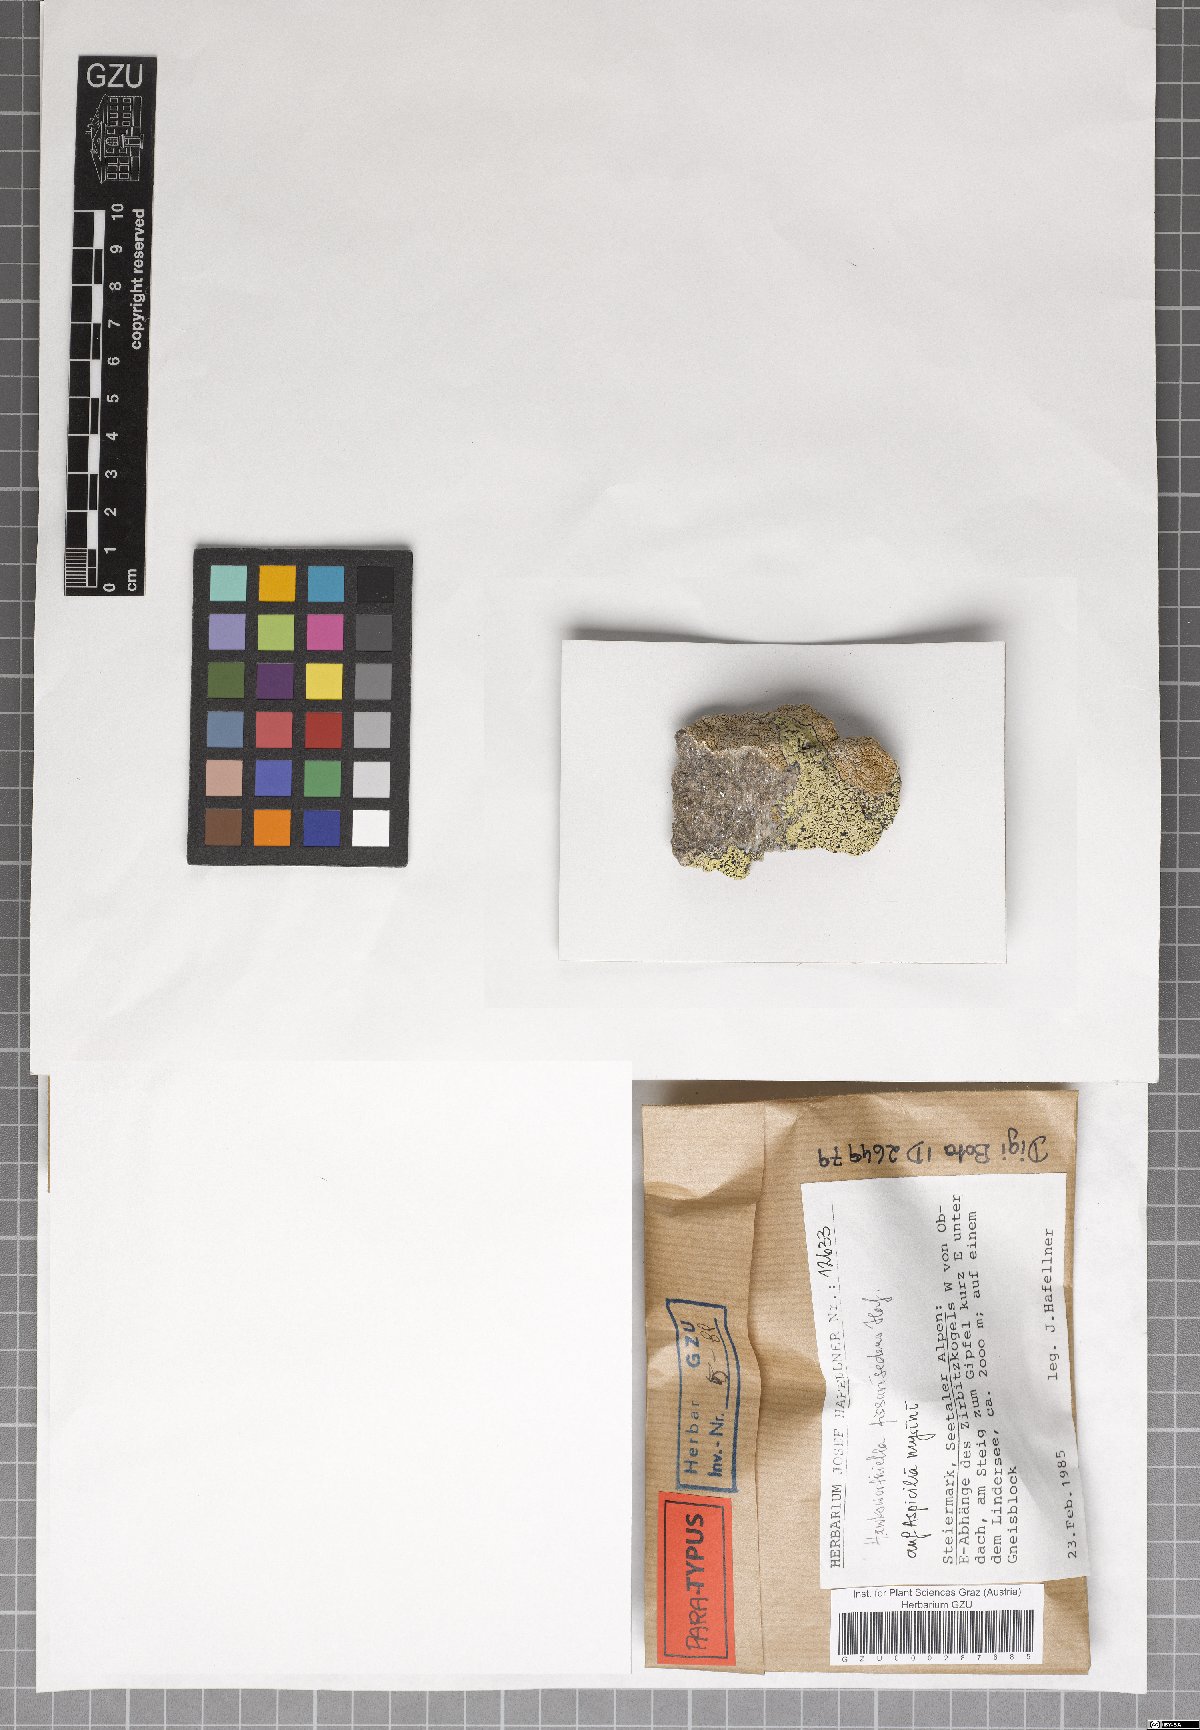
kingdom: Fungi
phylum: Ascomycota
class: Eurotiomycetes
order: Verrucariales
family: Adelococcaceae
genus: Sagediopsis
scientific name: Sagediopsis fissurisedens
